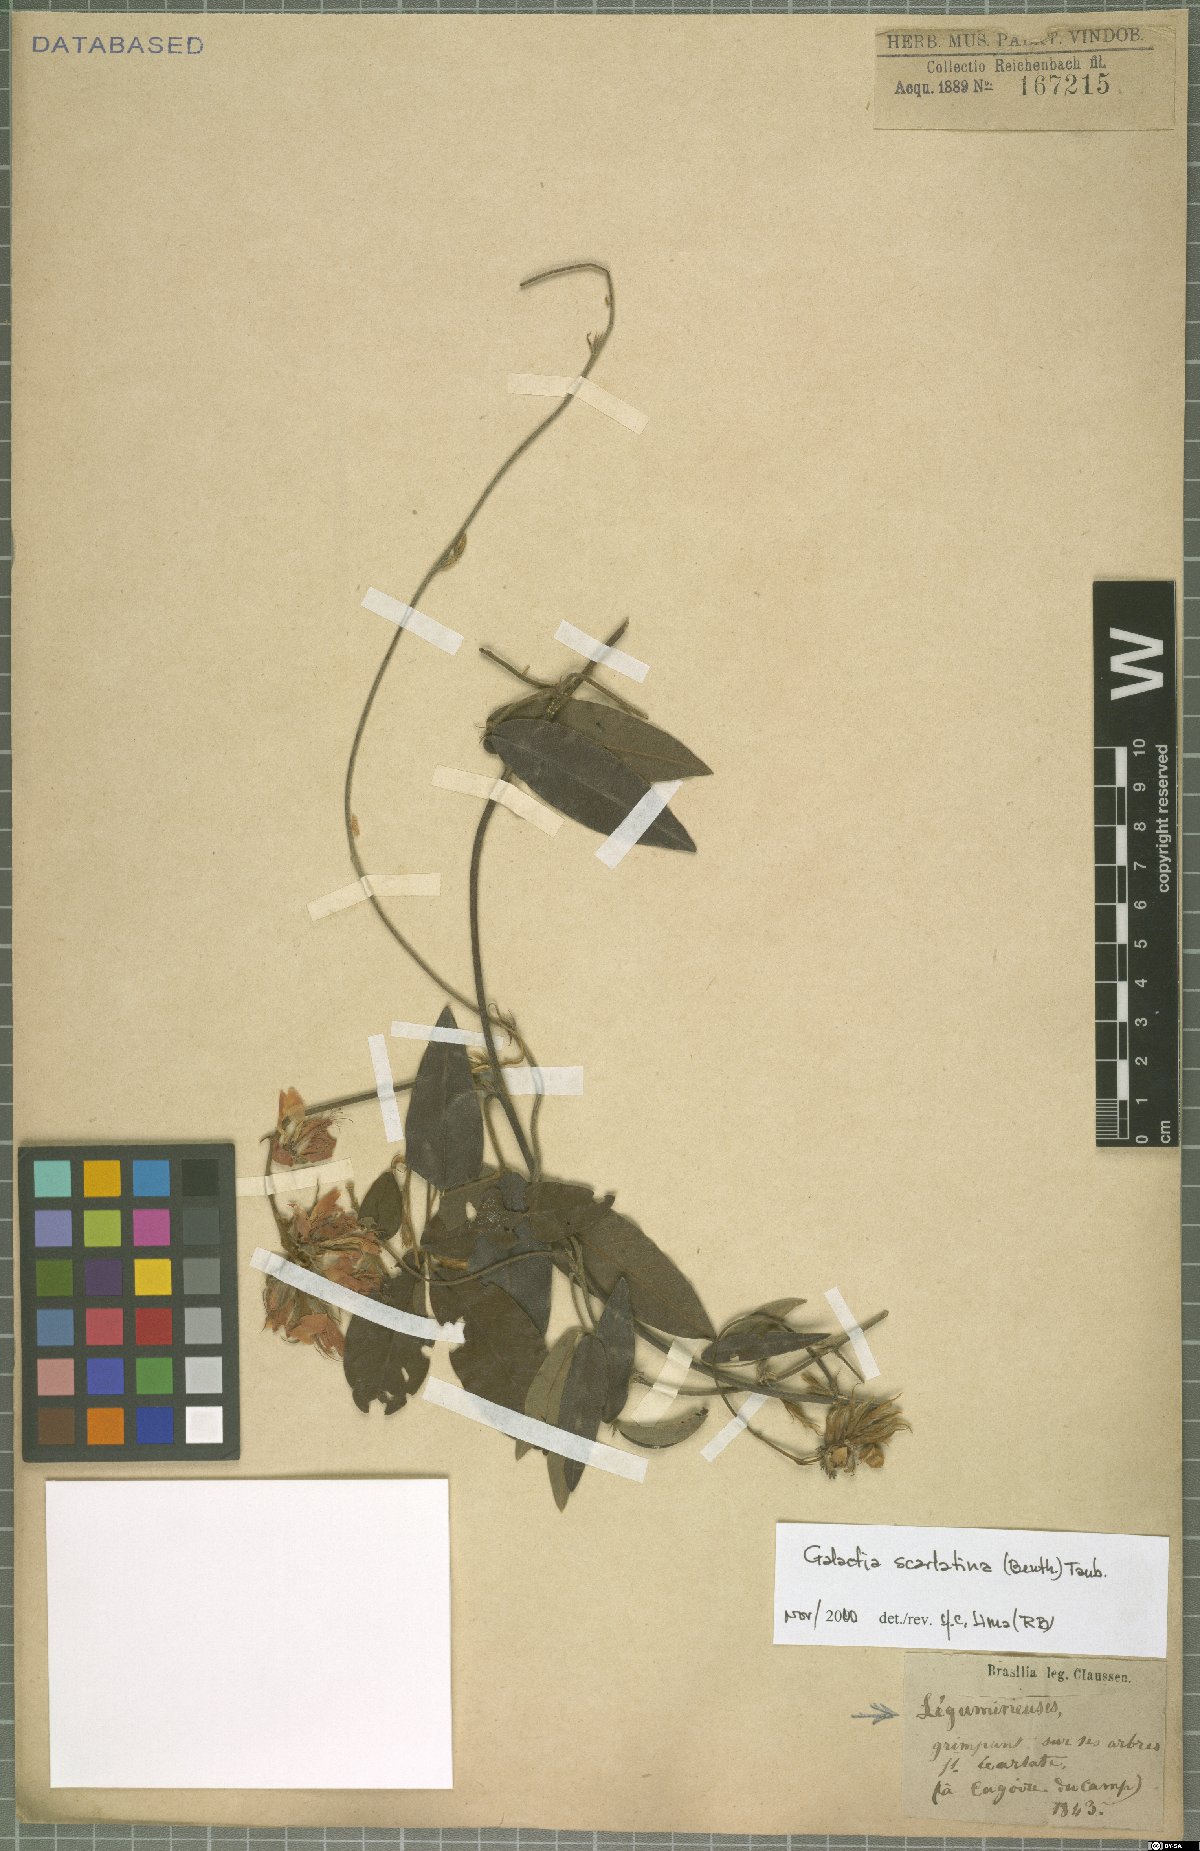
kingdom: Plantae
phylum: Tracheophyta
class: Magnoliopsida
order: Fabales
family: Fabaceae
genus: Betencourtia
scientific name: Betencourtia scarlatina
